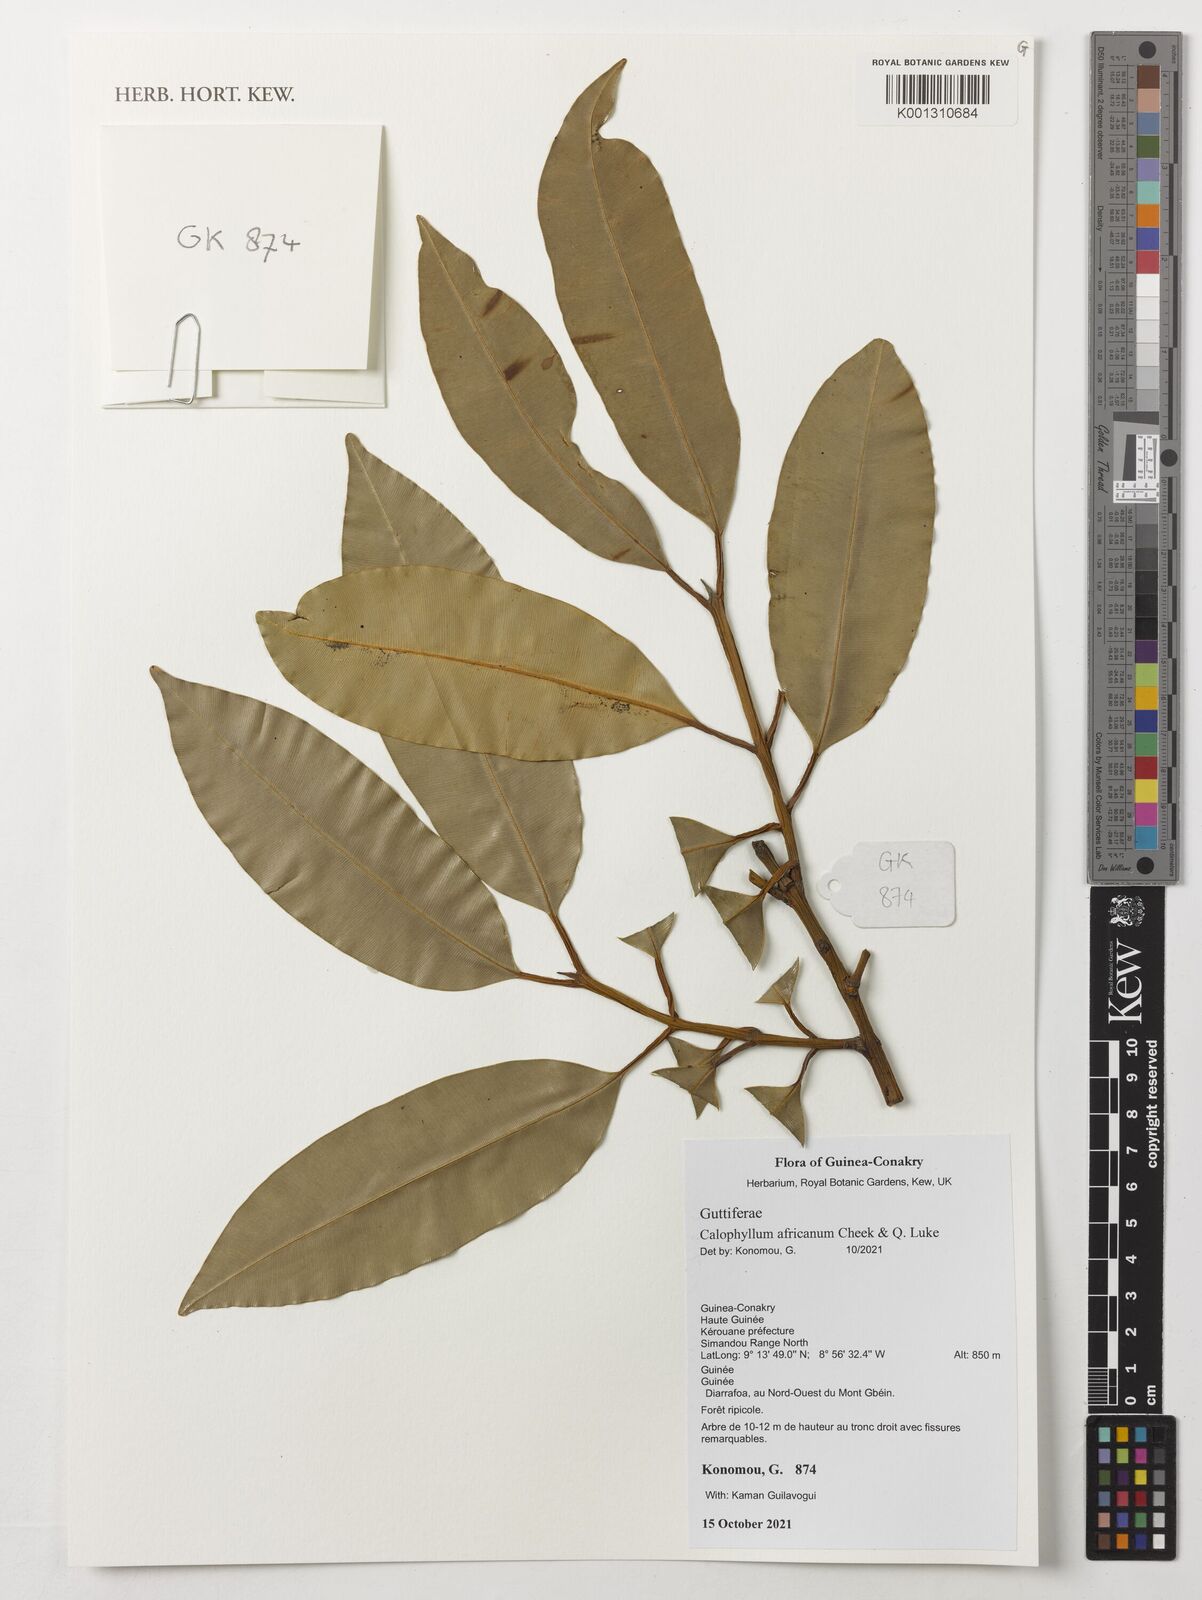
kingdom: Plantae
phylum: Tracheophyta
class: Magnoliopsida
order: Malpighiales
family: Calophyllaceae
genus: Calophyllum
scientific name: Calophyllum africanum
